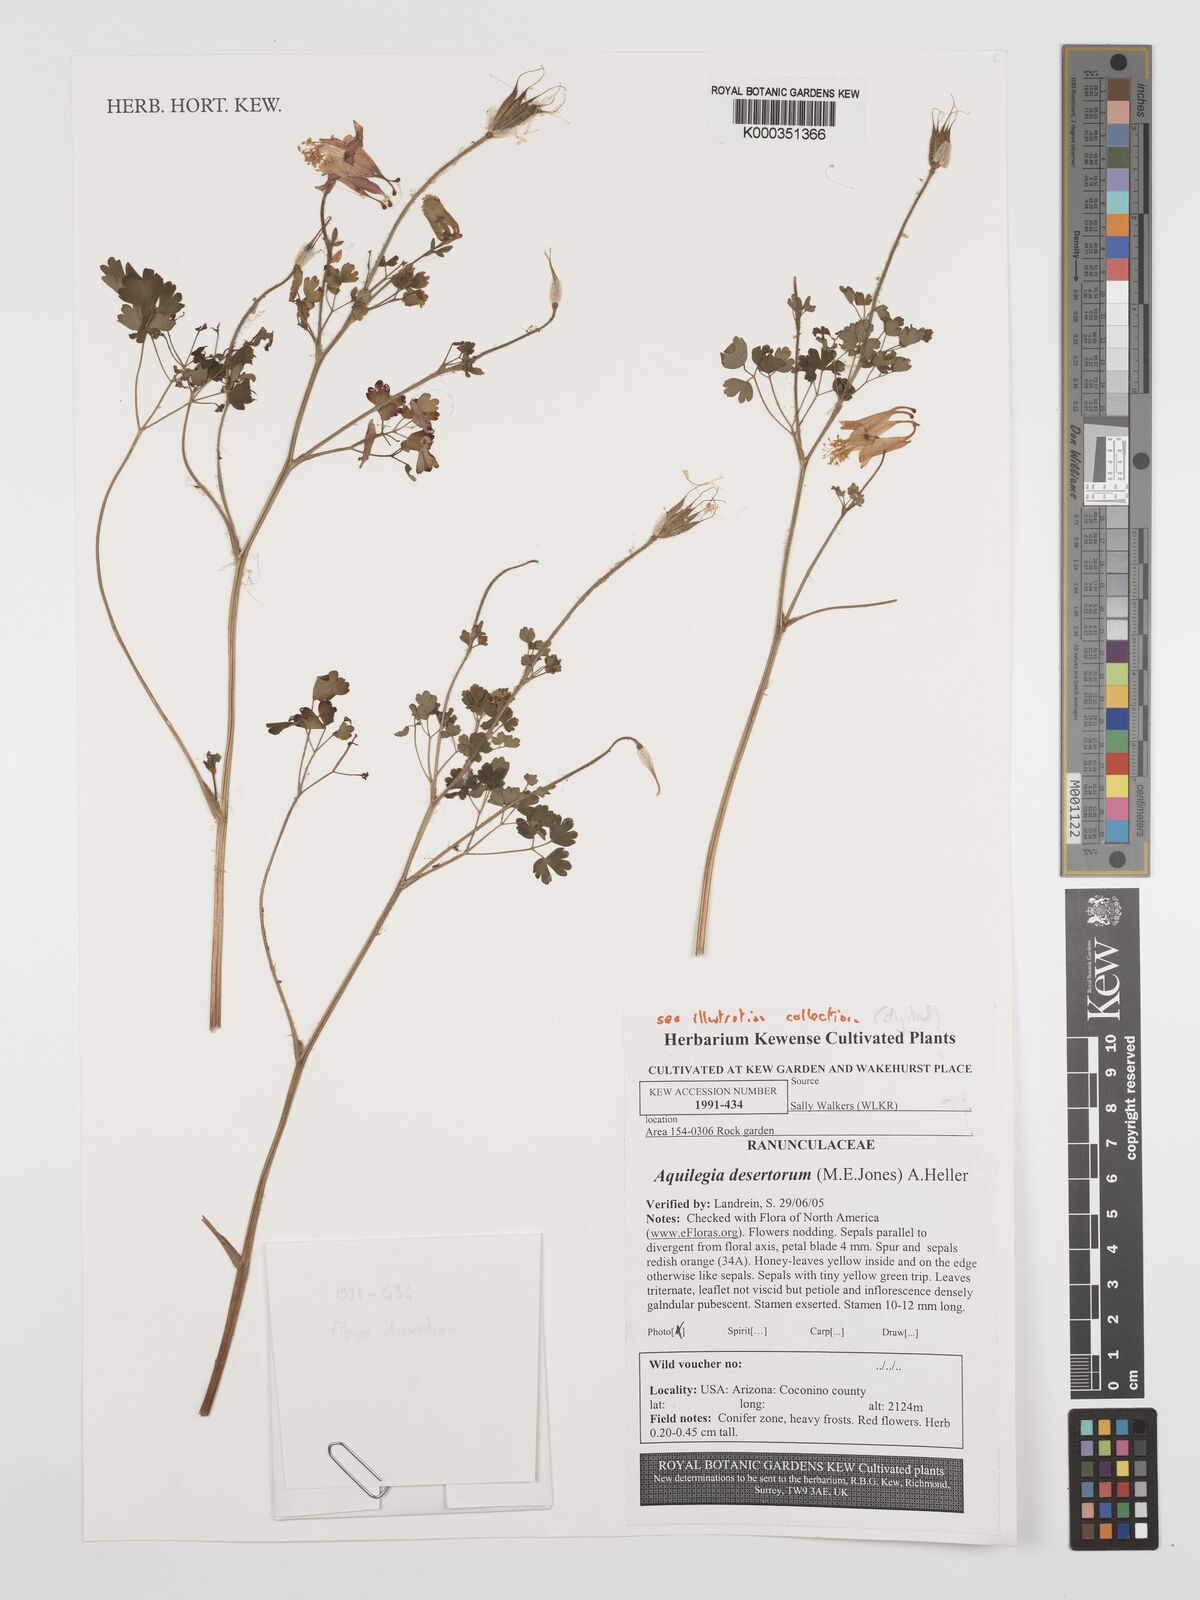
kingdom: Plantae
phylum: Tracheophyta
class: Magnoliopsida
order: Ranunculales
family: Ranunculaceae
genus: Aquilegia
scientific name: Aquilegia desertorum
